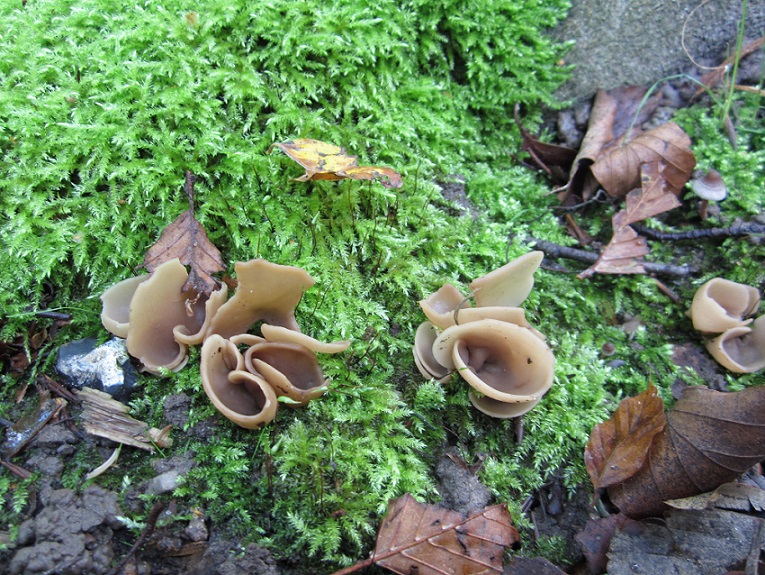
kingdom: Fungi
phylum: Ascomycota
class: Pezizomycetes
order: Pezizales
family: Otideaceae
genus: Otidea
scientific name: Otidea alutacea
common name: læder-ørebæger
